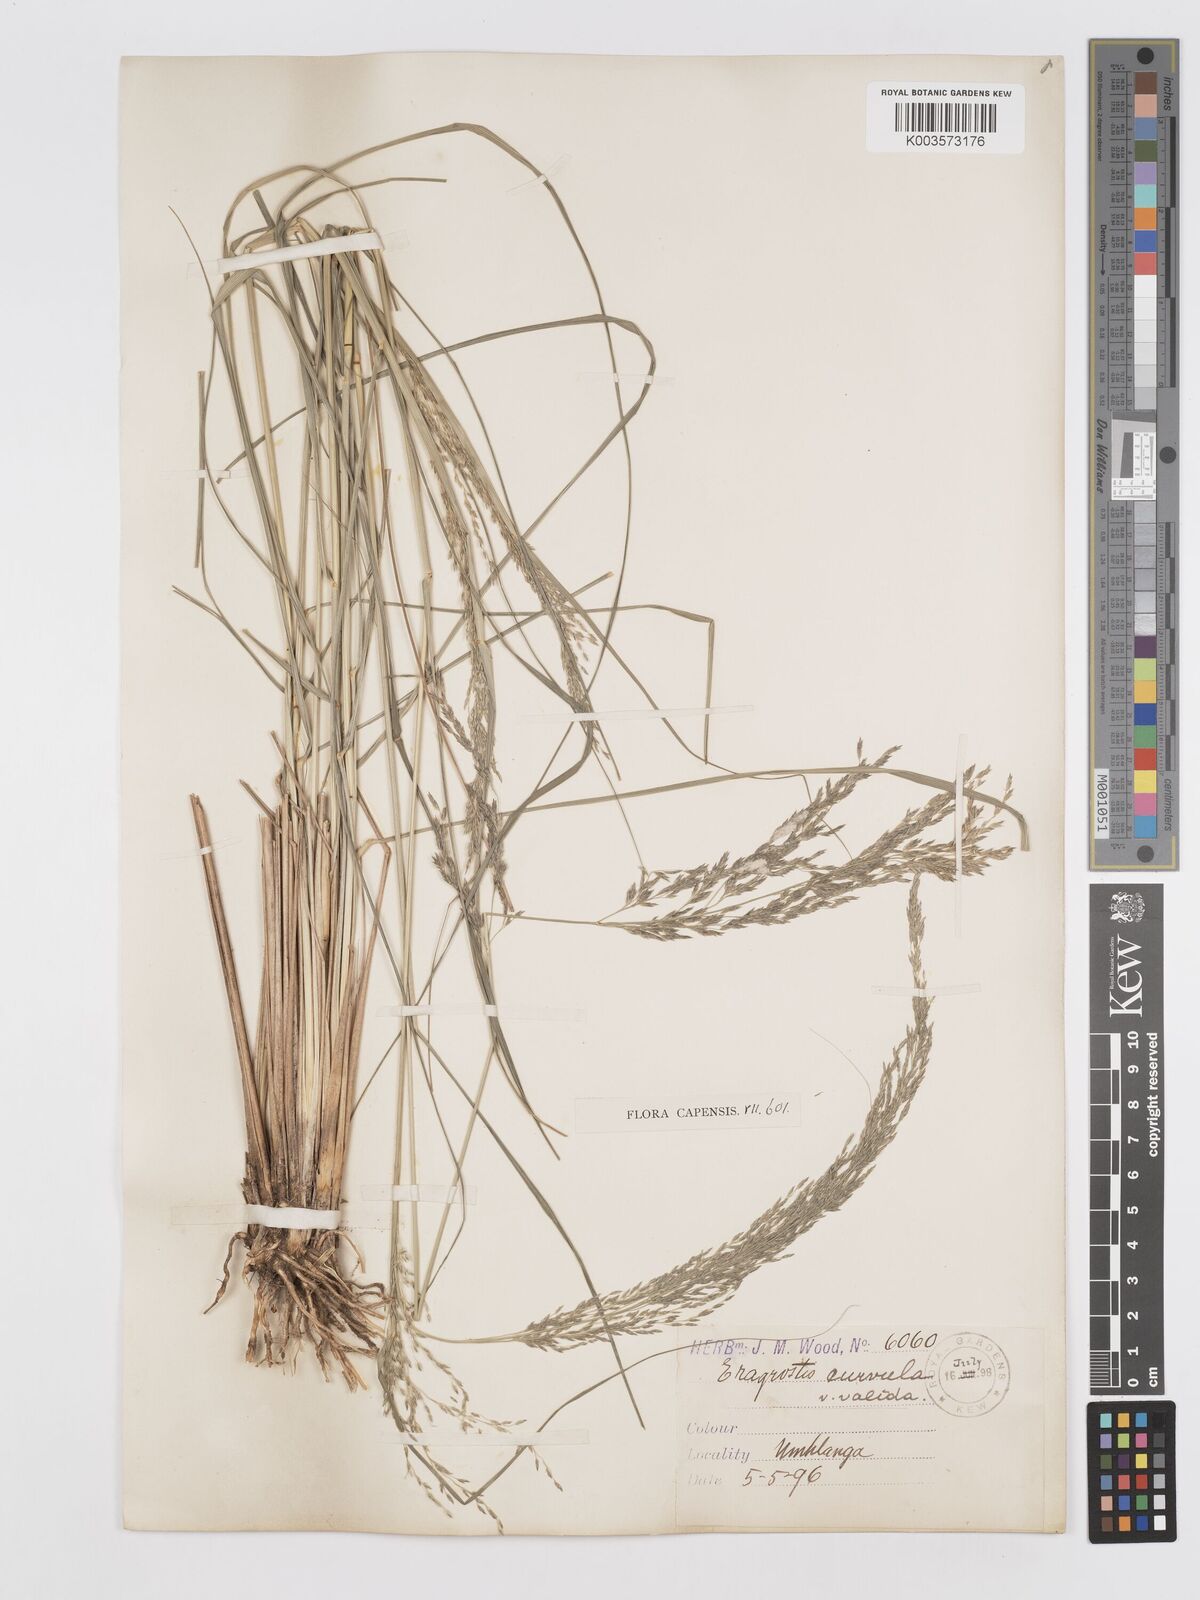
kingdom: Plantae
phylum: Tracheophyta
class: Liliopsida
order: Poales
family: Poaceae
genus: Eragrostis
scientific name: Eragrostis curvula
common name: African love-grass
